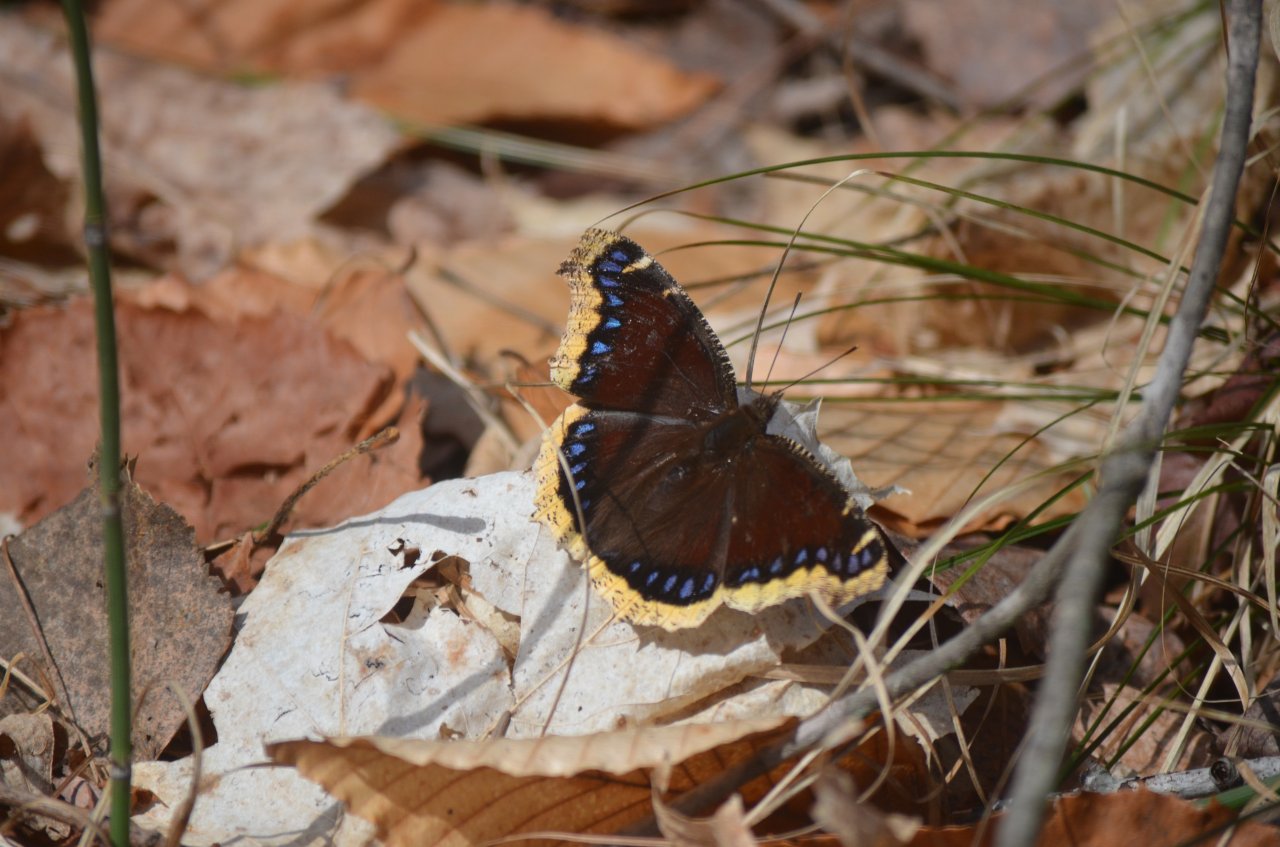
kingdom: Animalia
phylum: Arthropoda
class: Insecta
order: Lepidoptera
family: Nymphalidae
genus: Nymphalis
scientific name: Nymphalis antiopa
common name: Mourning Cloak
